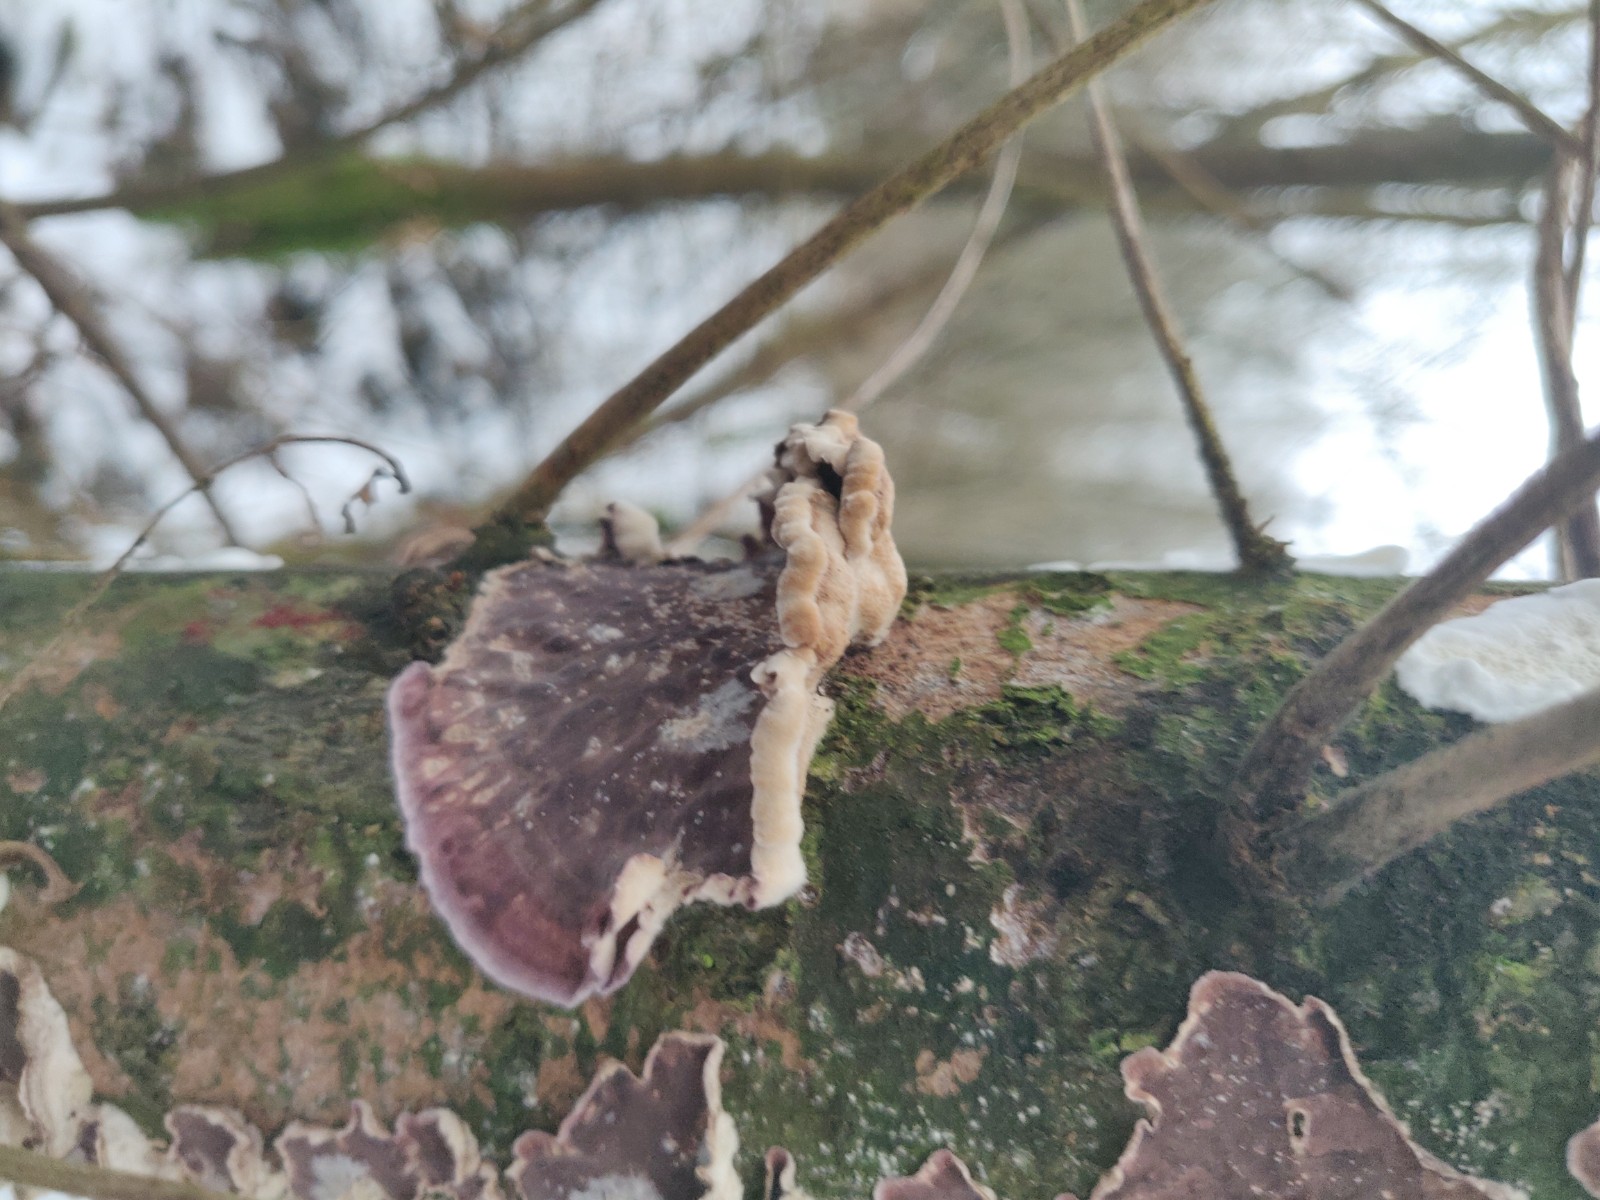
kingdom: Fungi
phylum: Basidiomycota
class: Agaricomycetes
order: Agaricales
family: Cyphellaceae
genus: Chondrostereum
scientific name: Chondrostereum purpureum
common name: purpurlædersvamp
